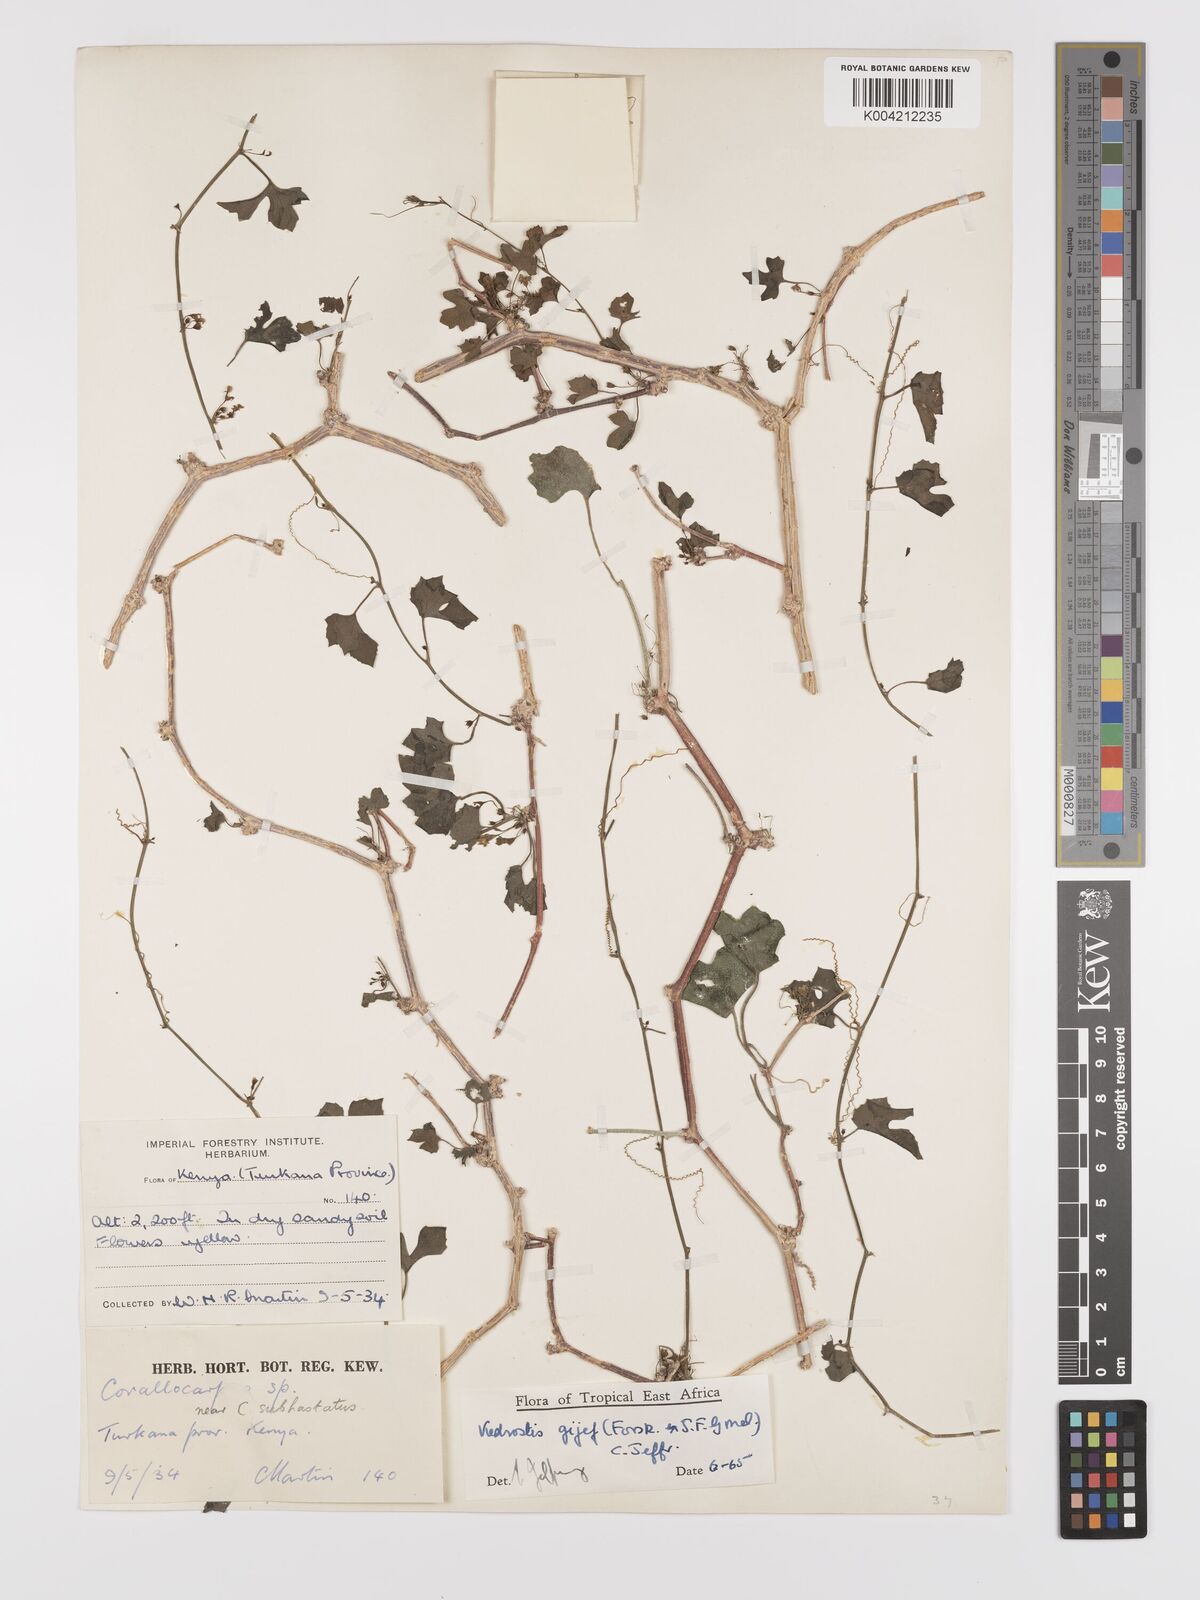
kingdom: Plantae
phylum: Tracheophyta
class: Magnoliopsida
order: Cucurbitales
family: Cucurbitaceae
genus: Kedrostis
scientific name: Kedrostis gijef
